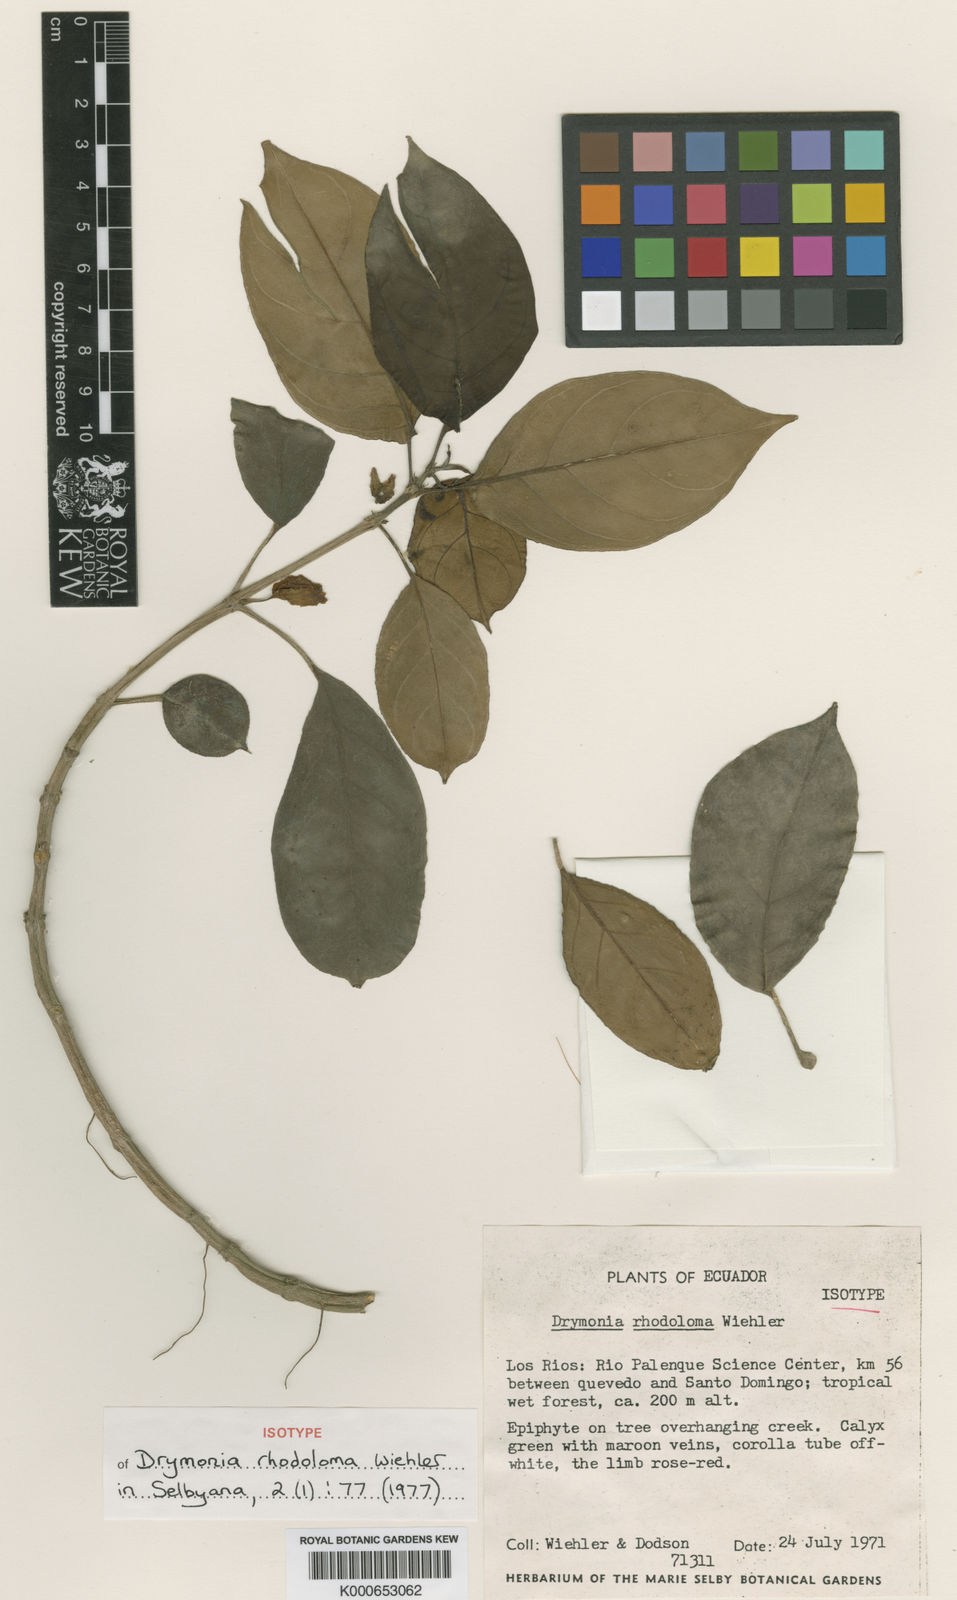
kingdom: Plantae
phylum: Tracheophyta
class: Magnoliopsida
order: Lamiales
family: Gesneriaceae
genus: Drymonia
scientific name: Drymonia rhodoloma
